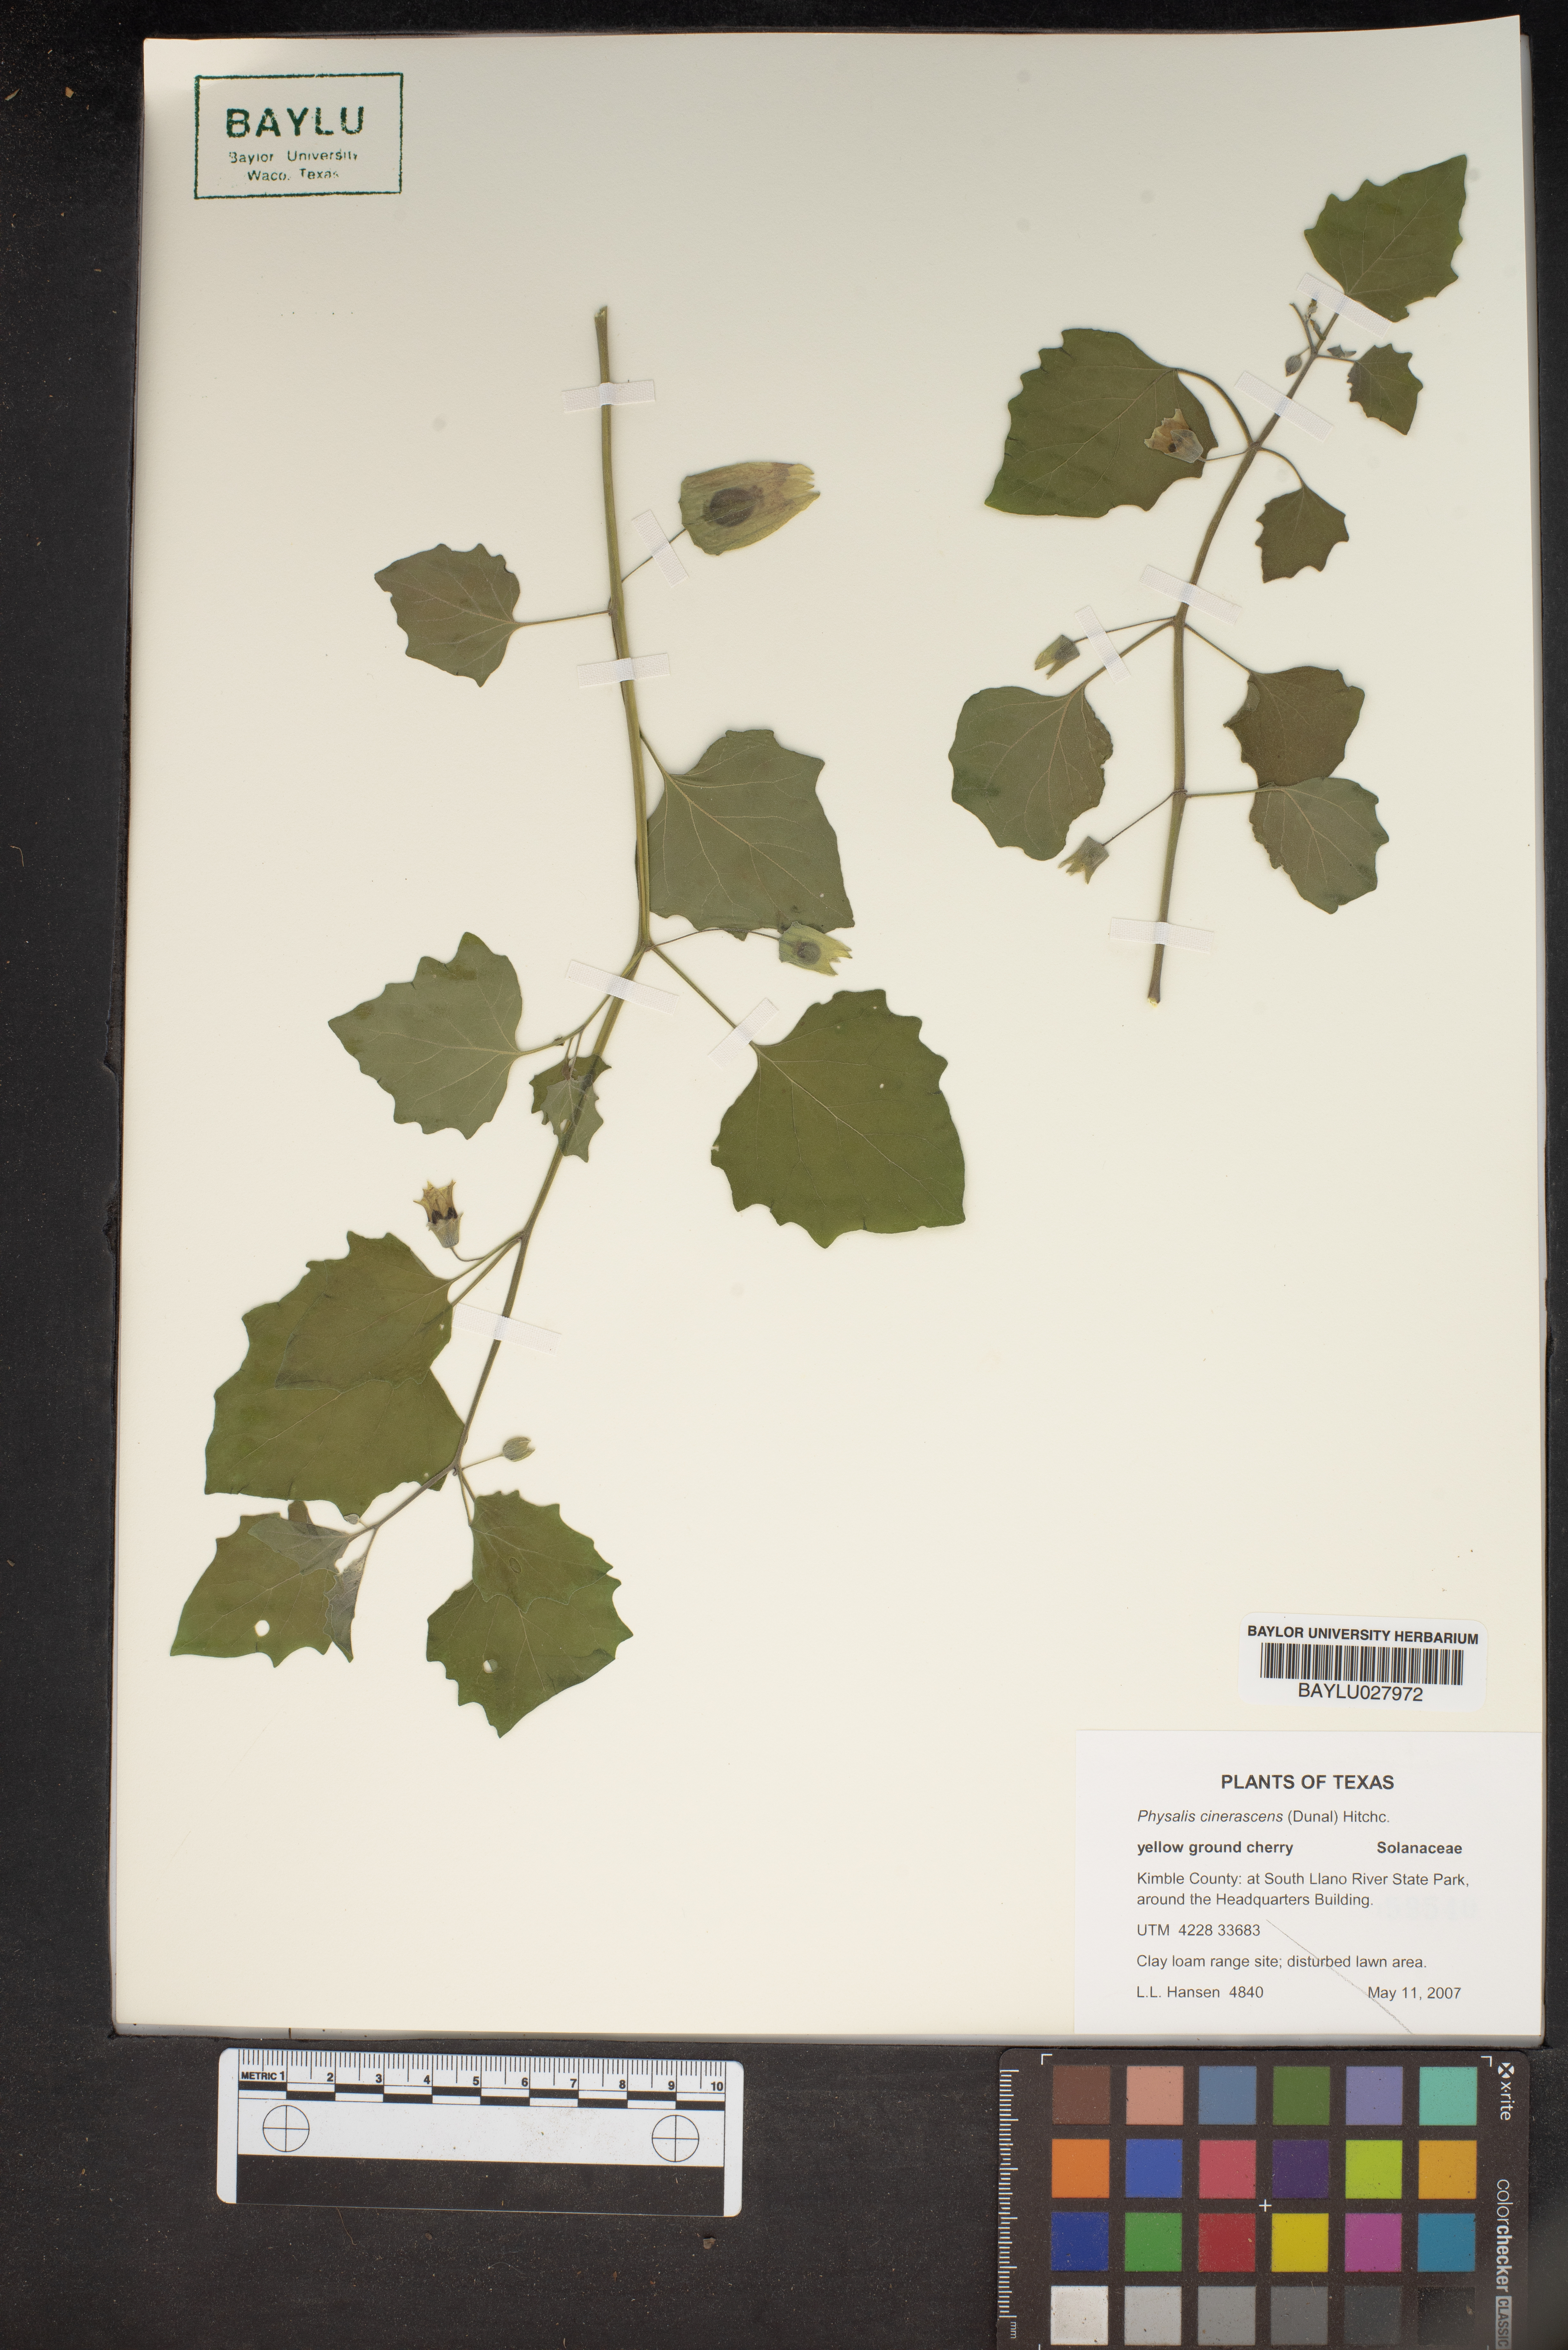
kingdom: Plantae
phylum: Tracheophyta
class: Magnoliopsida
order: Solanales
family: Solanaceae
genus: Physalis
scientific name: Physalis cinerascens
